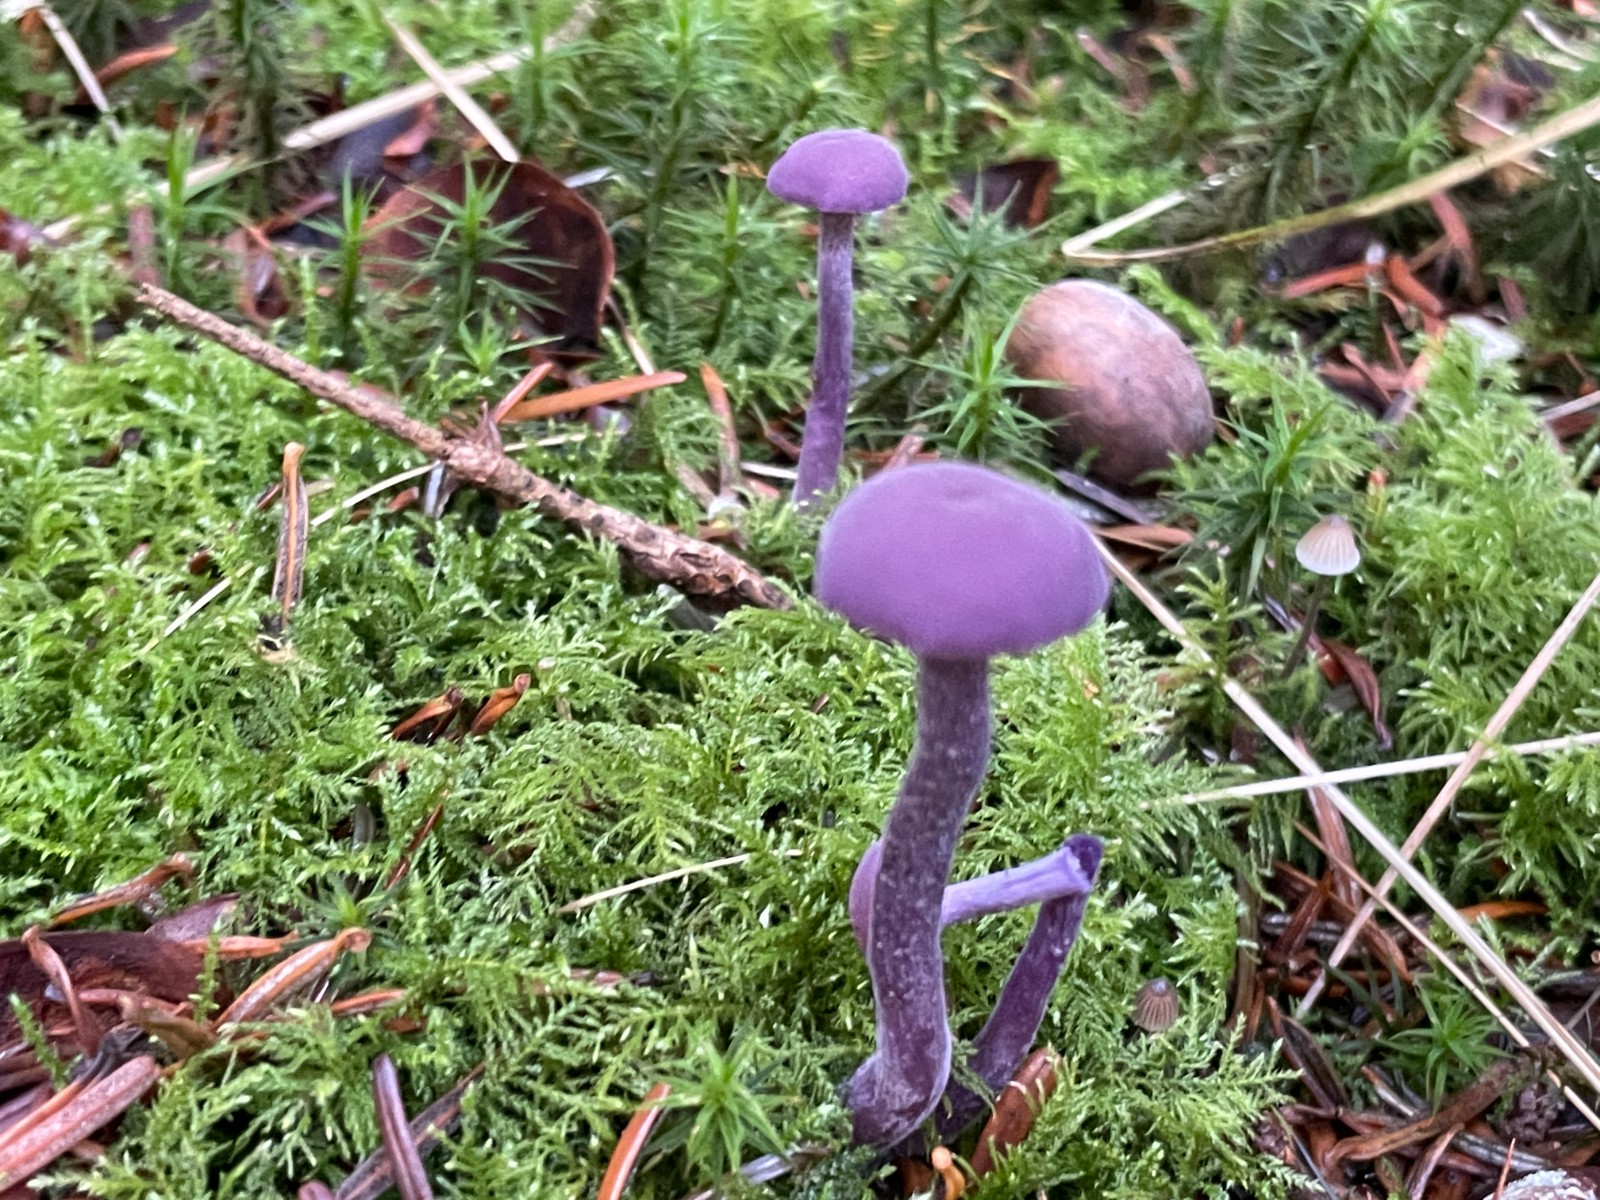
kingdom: Fungi
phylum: Basidiomycota
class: Agaricomycetes
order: Agaricales
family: Hydnangiaceae
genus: Laccaria
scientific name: Laccaria amethystina
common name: violet ametysthat
